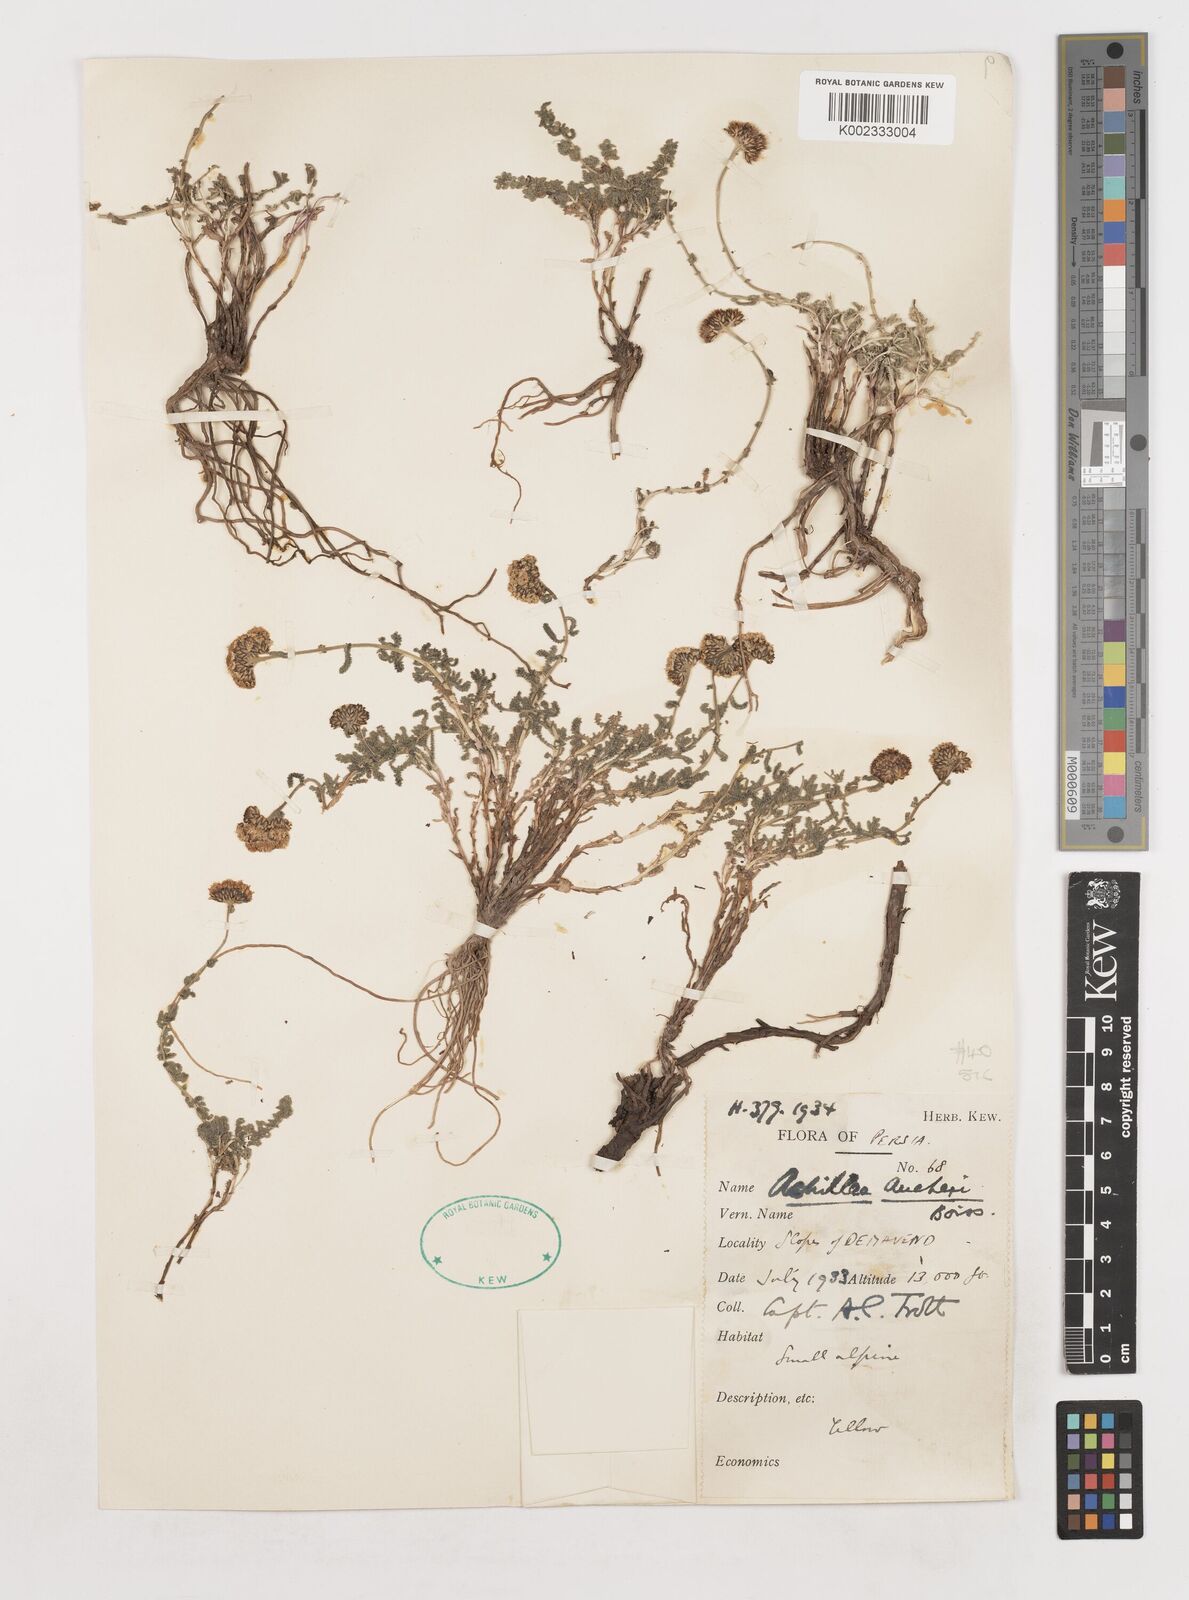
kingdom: Plantae
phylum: Tracheophyta
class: Magnoliopsida
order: Asterales
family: Asteraceae
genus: Achillea
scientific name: Achillea aucheri
